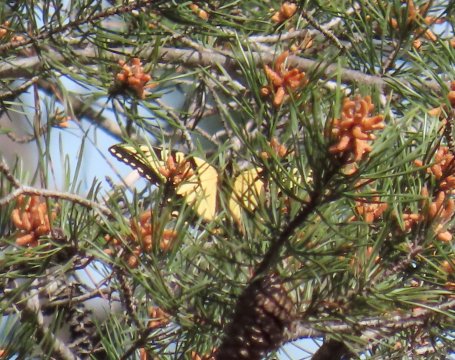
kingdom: Animalia
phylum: Arthropoda
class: Insecta
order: Lepidoptera
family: Papilionidae
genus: Pterourus
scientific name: Pterourus glaucus
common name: Eastern Tiger Swallowtail
